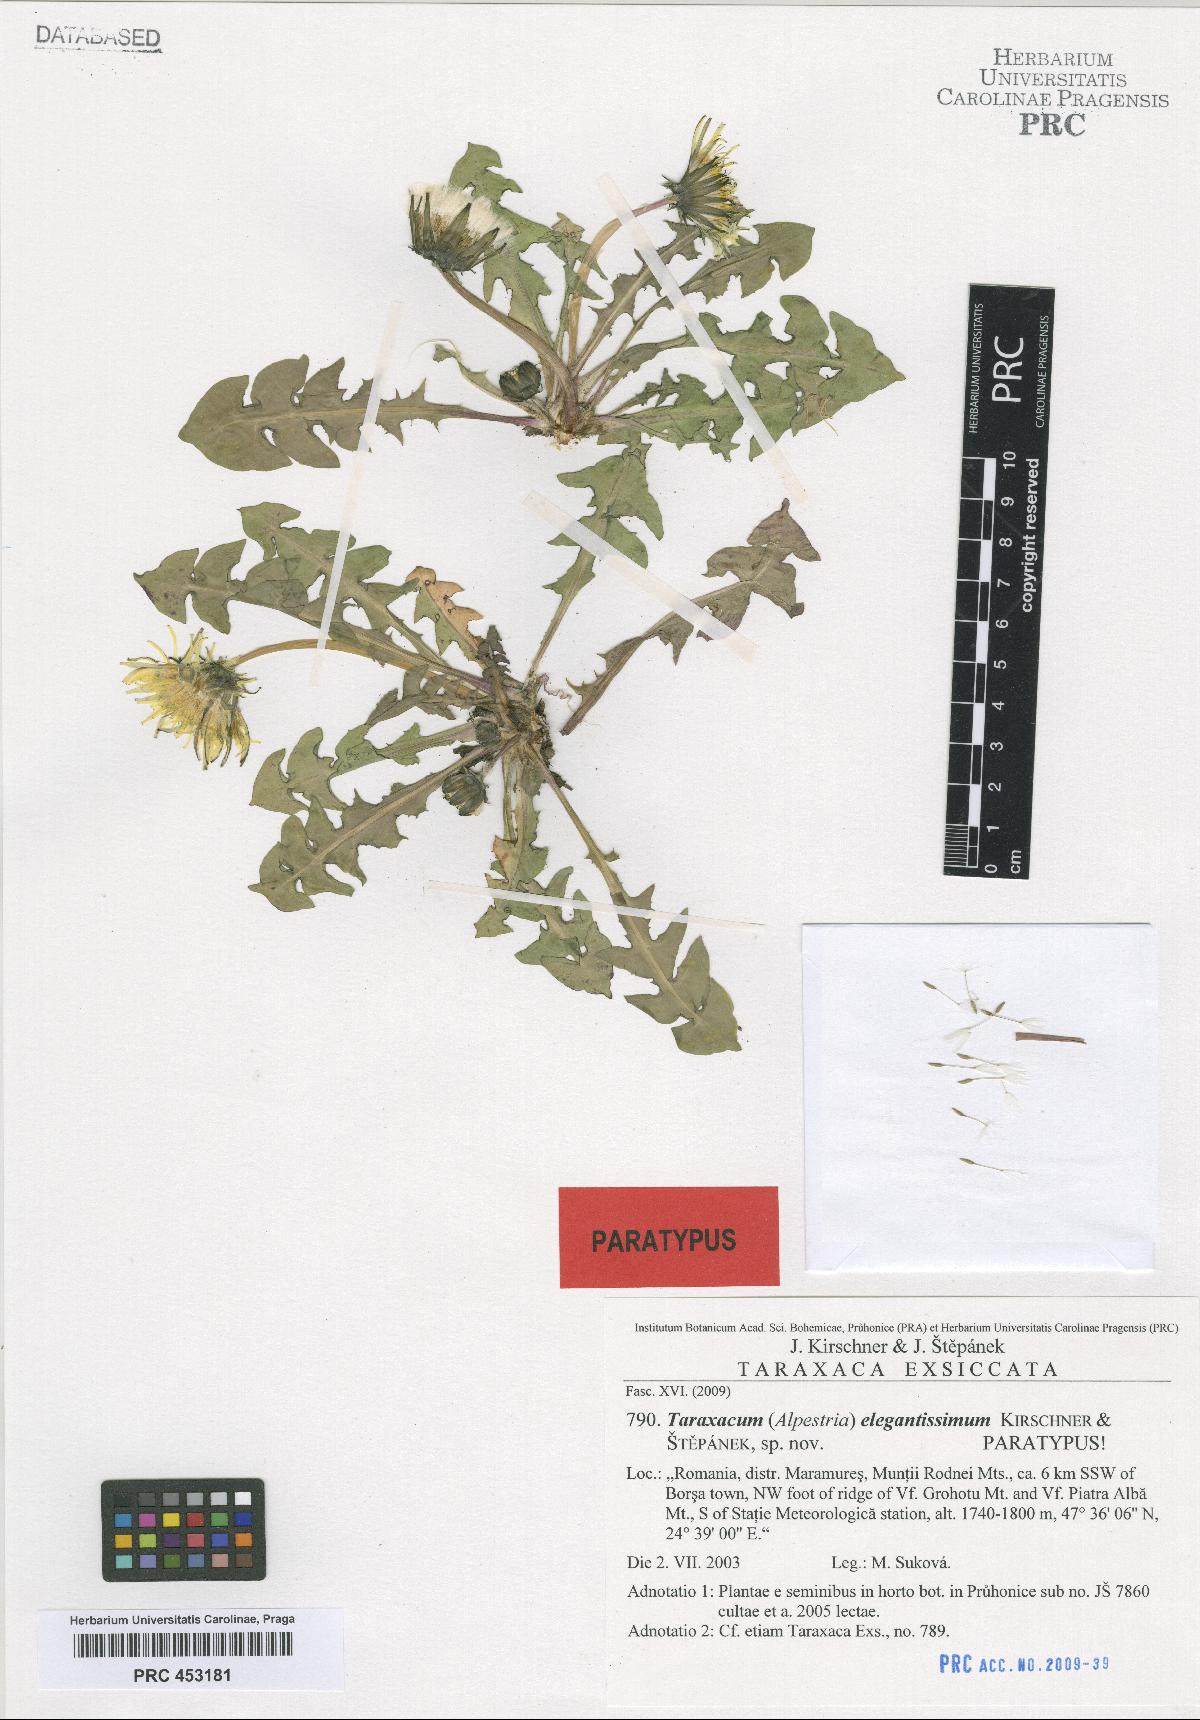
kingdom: Plantae
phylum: Tracheophyta
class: Magnoliopsida
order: Asterales
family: Asteraceae
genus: Taraxacum
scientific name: Taraxacum elegantissimum
